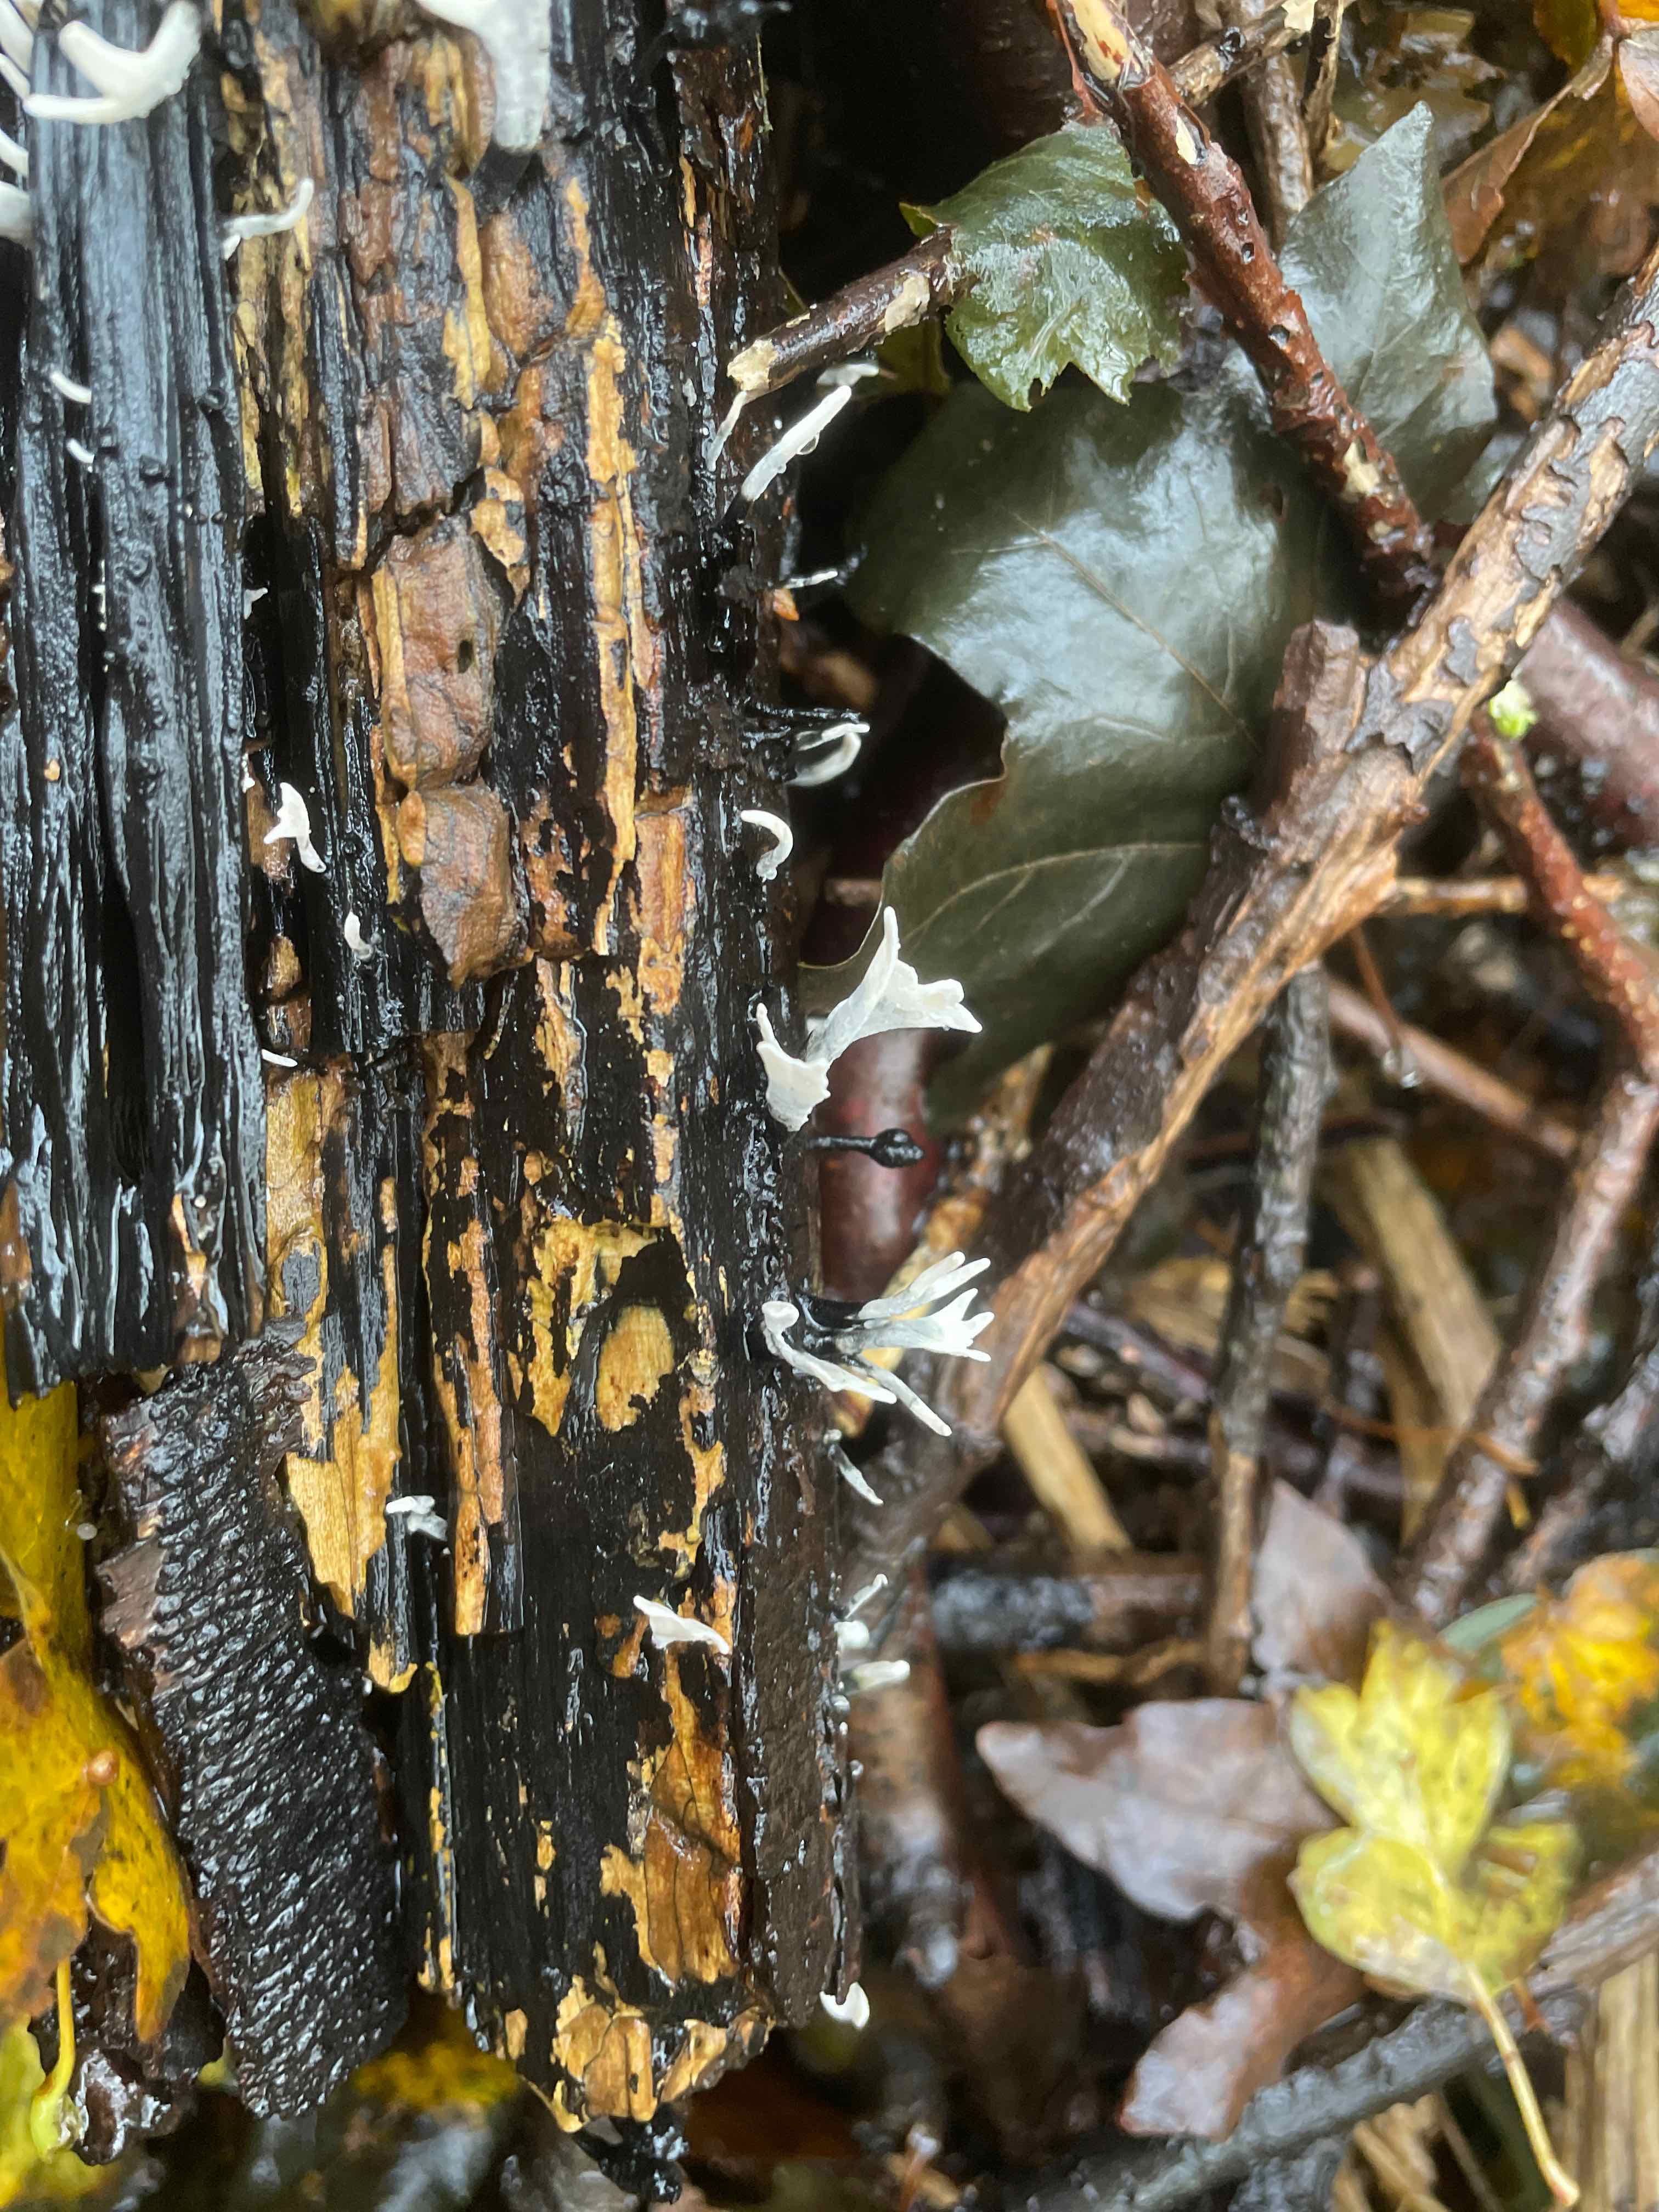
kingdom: Fungi
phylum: Ascomycota
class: Sordariomycetes
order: Xylariales
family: Xylariaceae
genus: Xylaria
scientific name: Xylaria hypoxylon
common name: grenet stødsvamp
